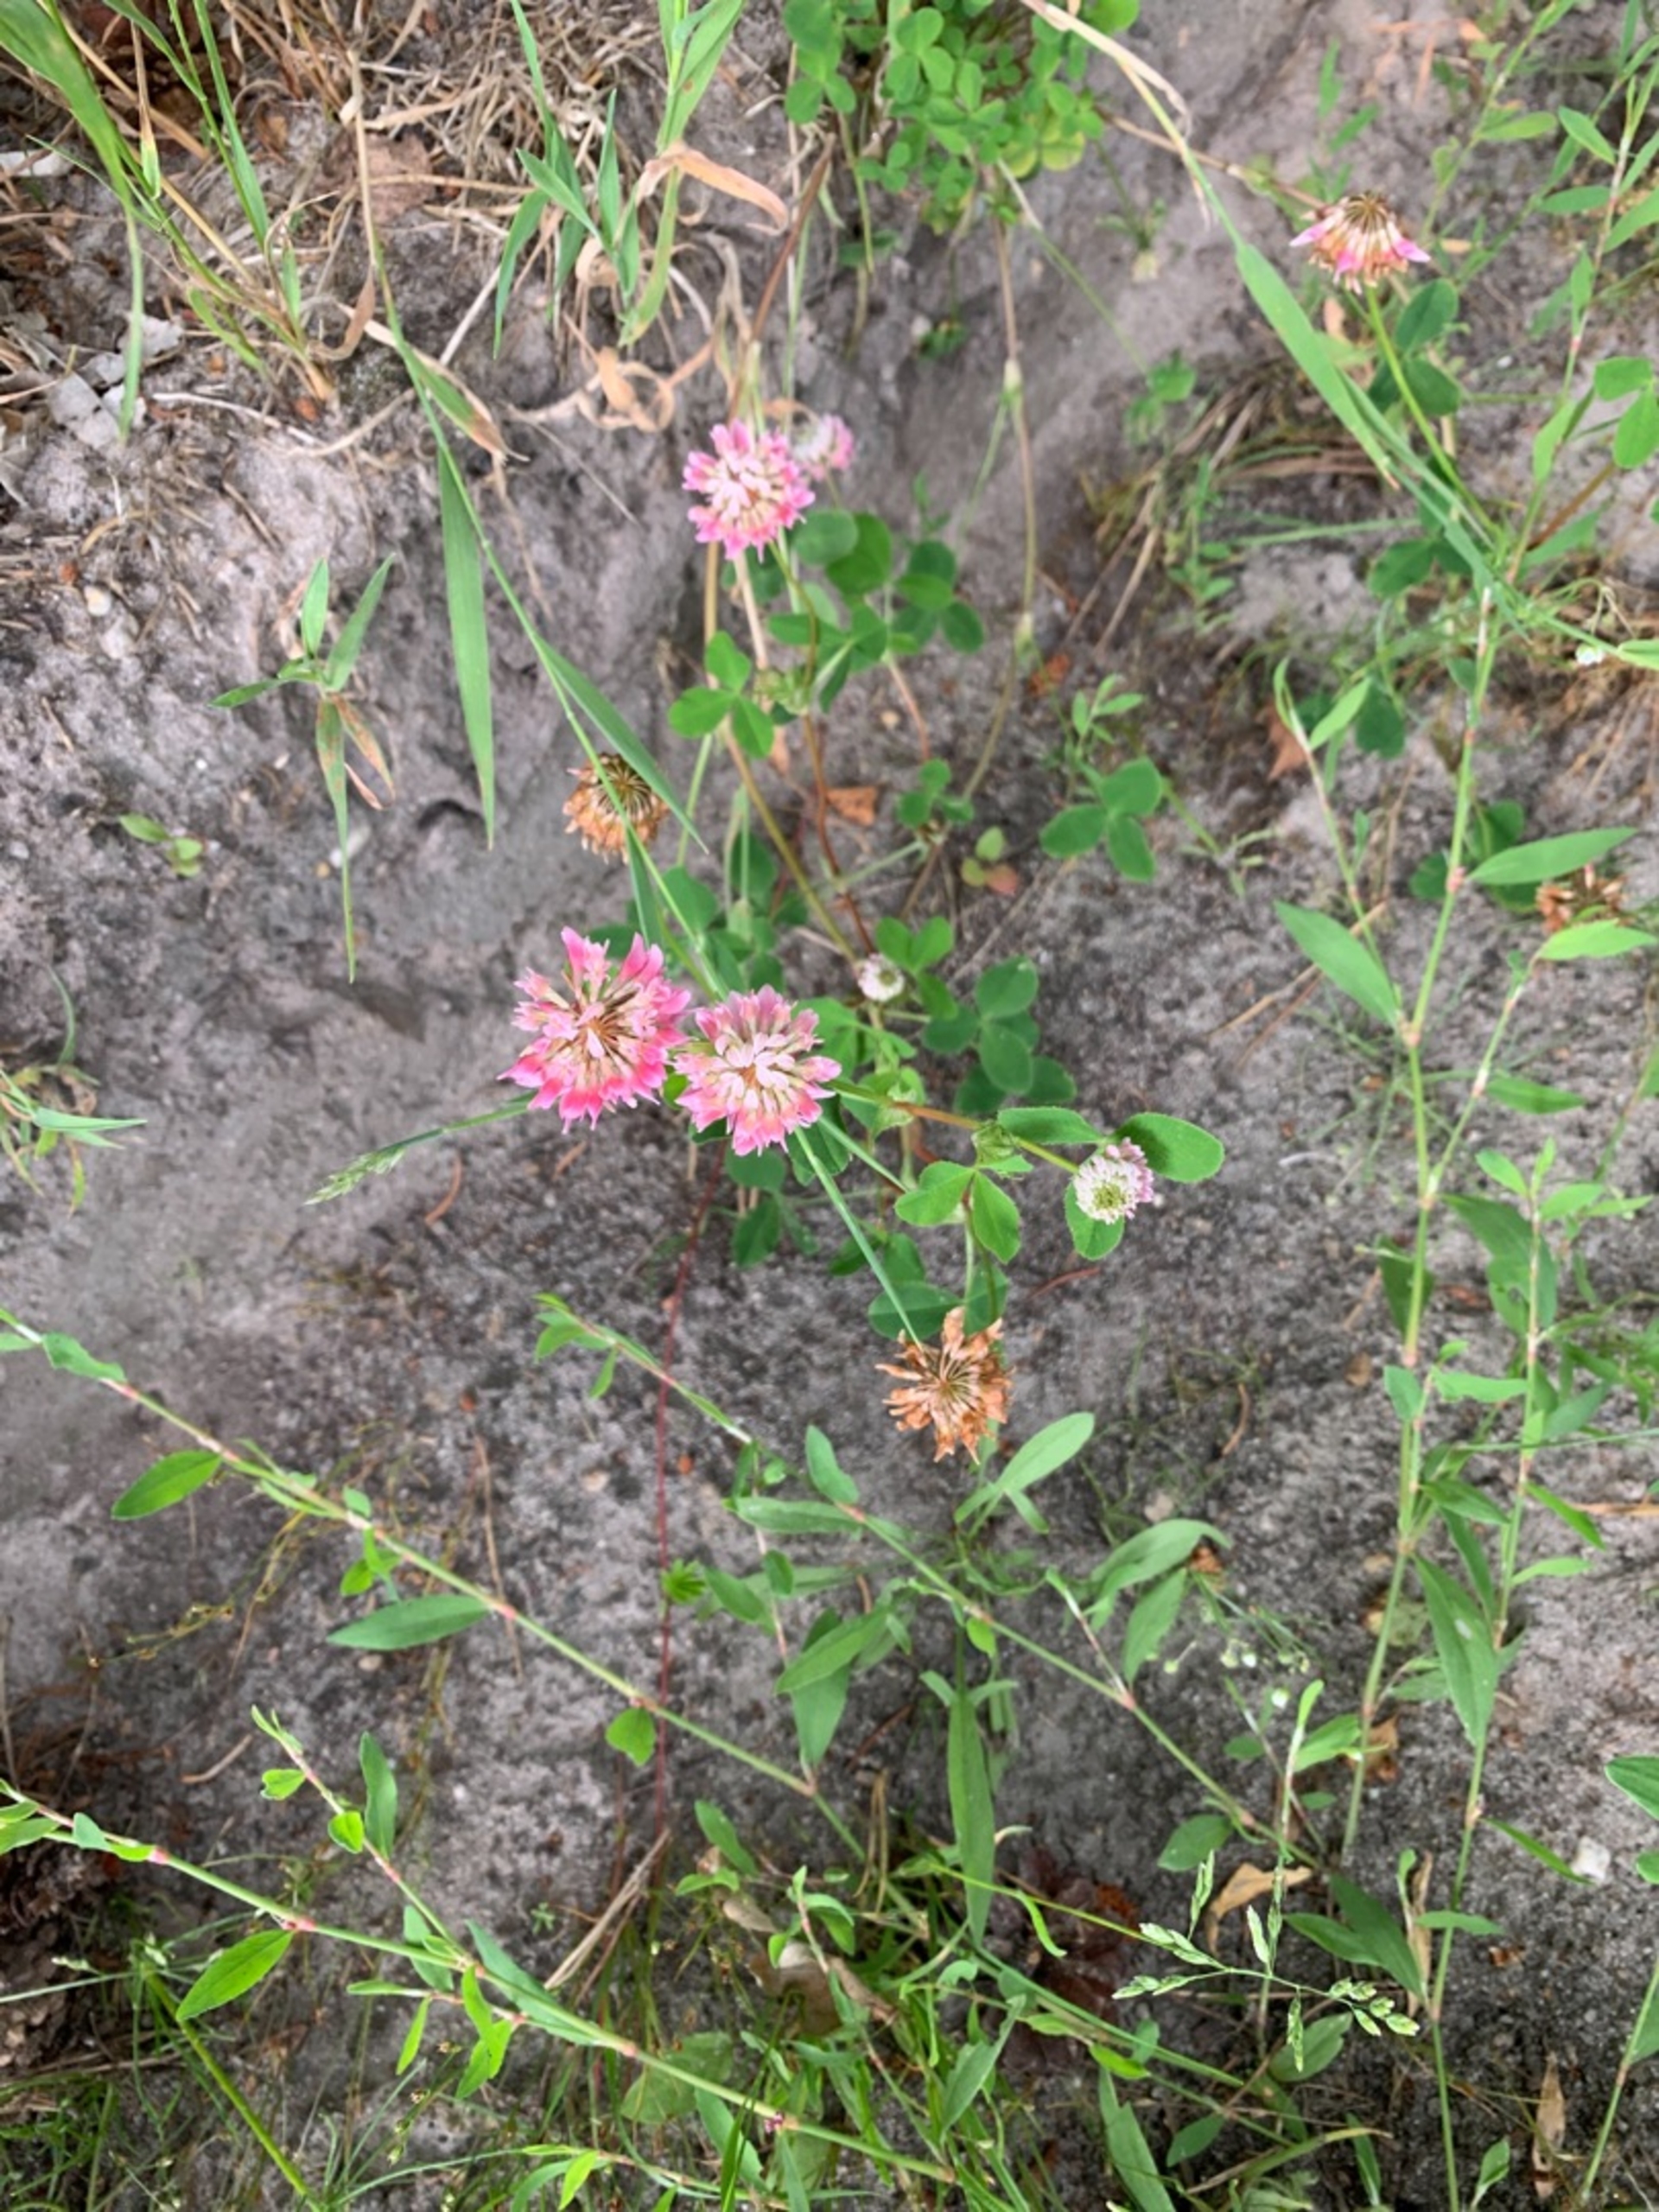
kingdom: Plantae
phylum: Tracheophyta
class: Magnoliopsida
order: Fabales
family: Fabaceae
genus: Trifolium
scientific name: Trifolium hybridum
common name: Alsike-kløver
